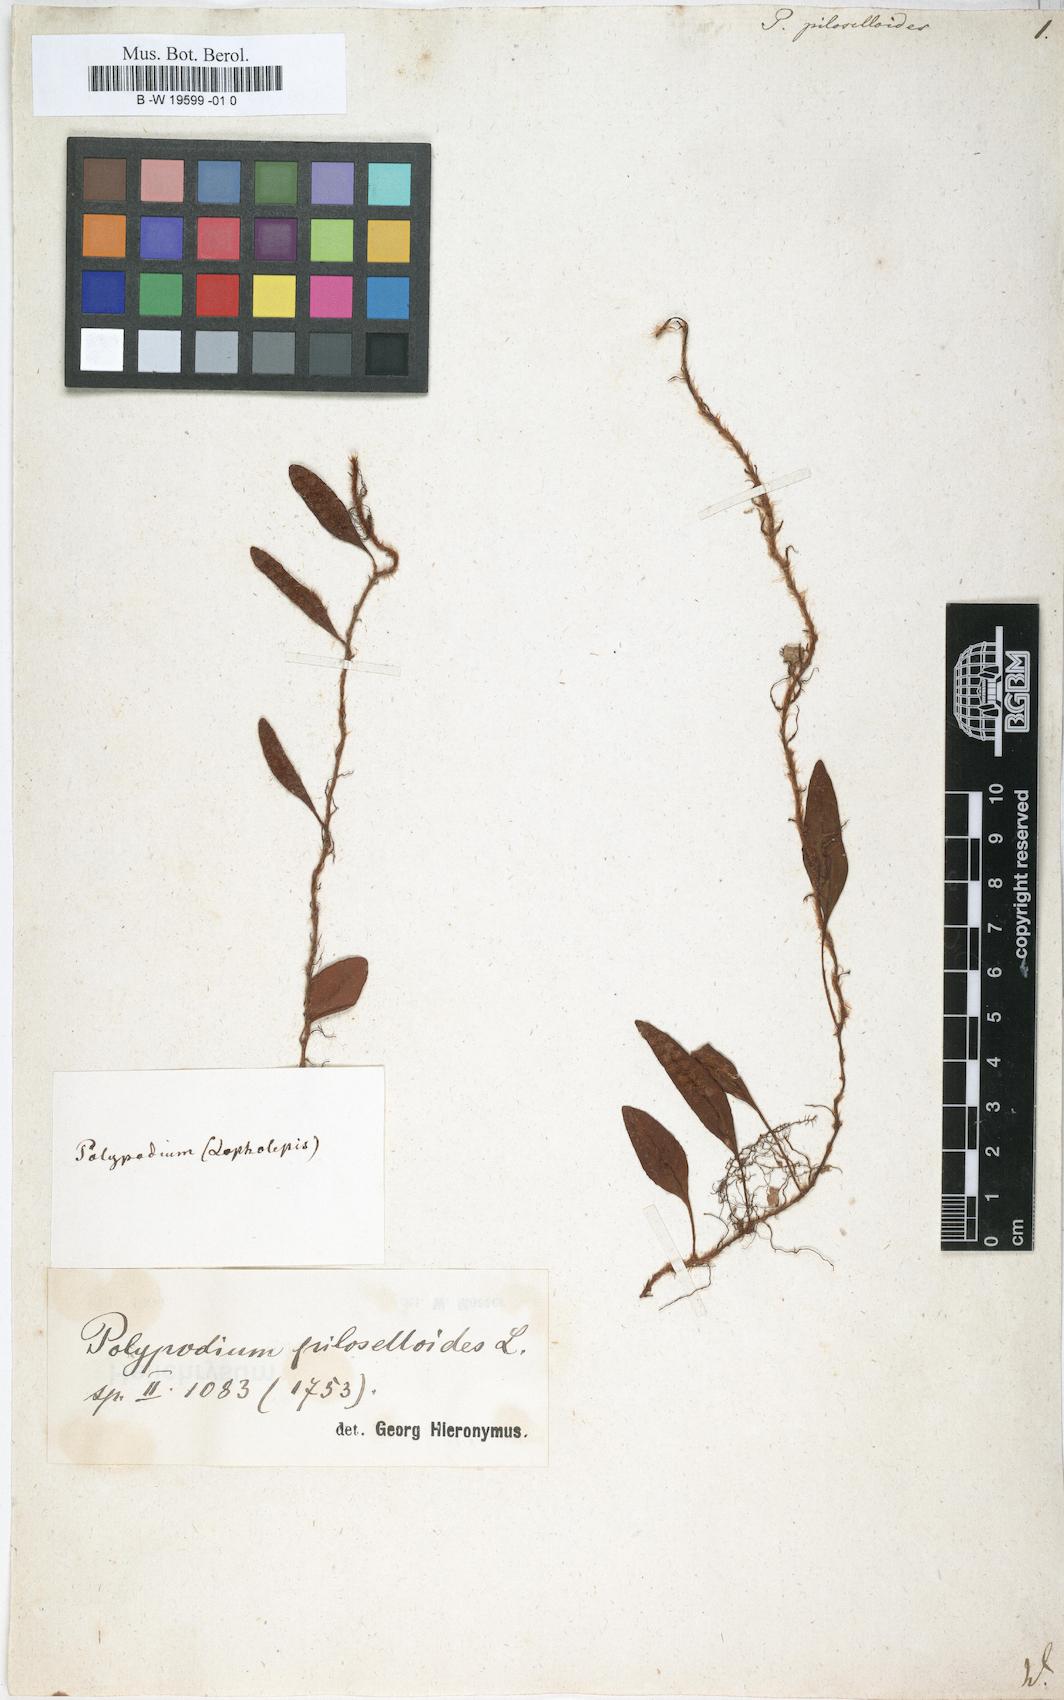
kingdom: Plantae
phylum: Tracheophyta
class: Polypodiopsida
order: Polypodiales
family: Polypodiaceae
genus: Polypodium
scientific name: Polypodium piloselloides
